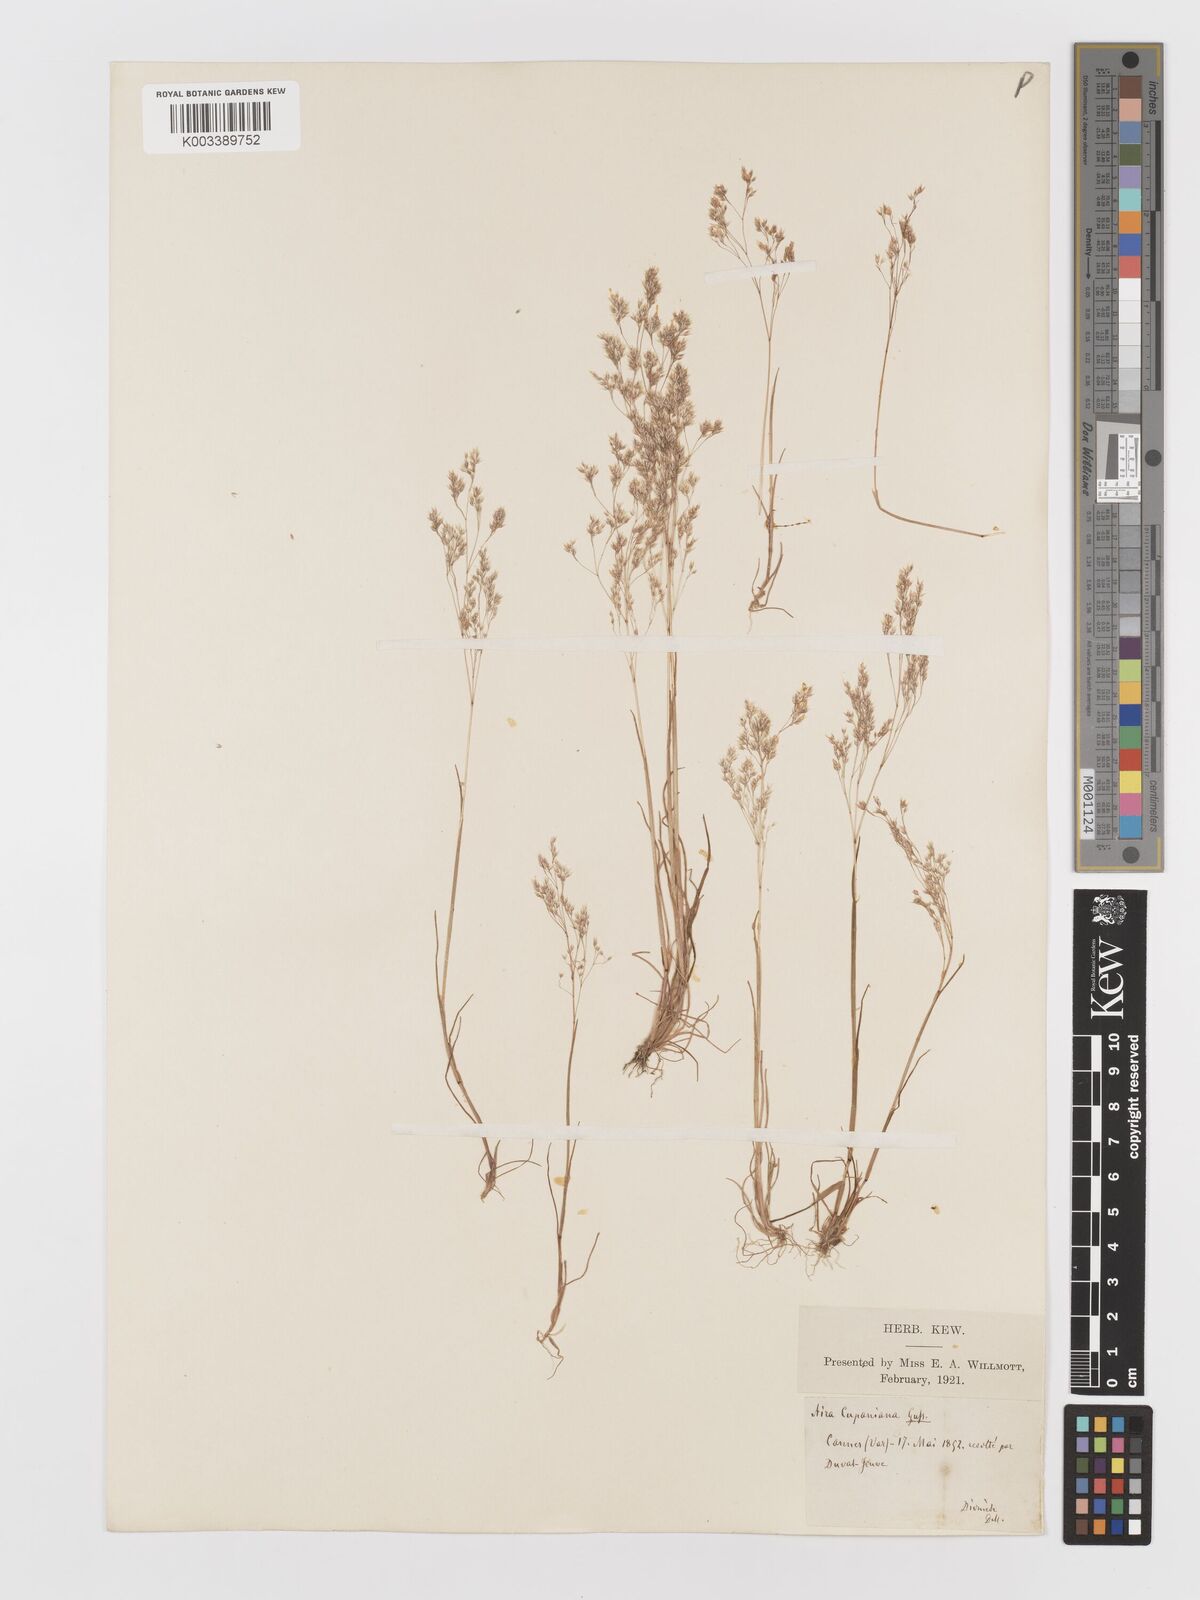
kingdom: Plantae
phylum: Tracheophyta
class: Liliopsida
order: Poales
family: Poaceae
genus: Aira
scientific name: Aira cupaniana
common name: Silver hairgrass
